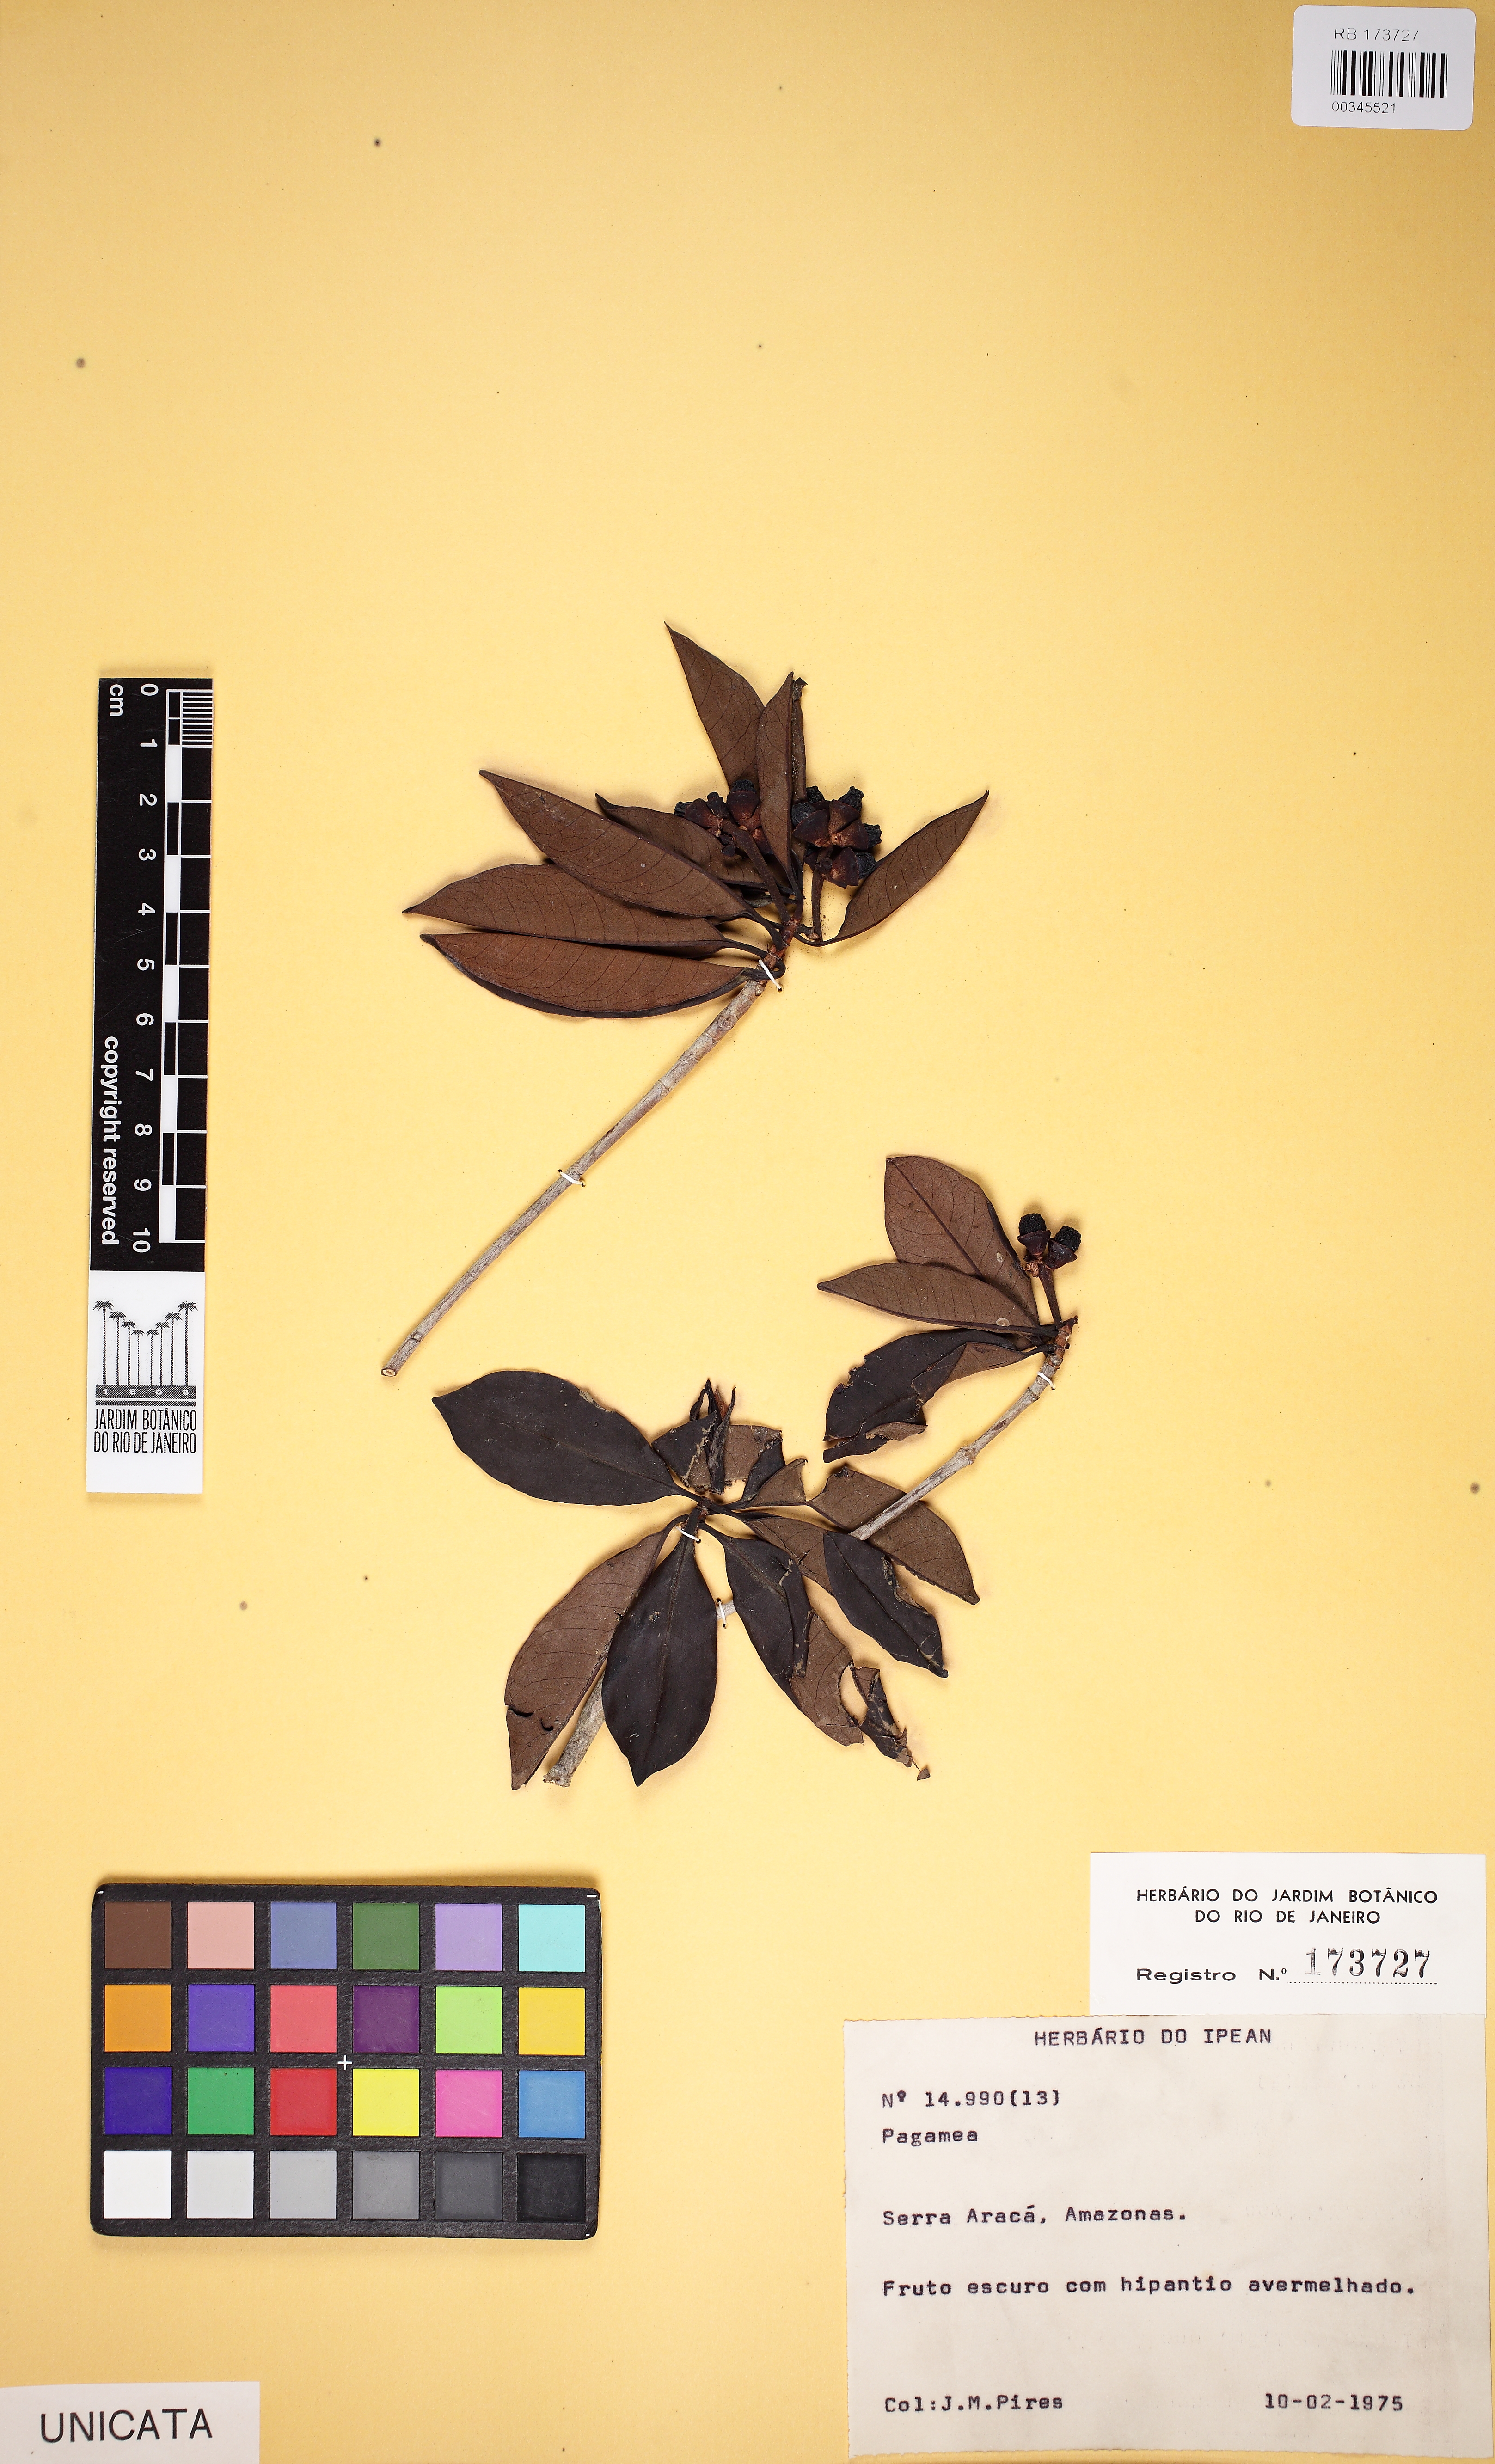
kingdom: Plantae
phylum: Tracheophyta
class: Magnoliopsida
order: Gentianales
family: Rubiaceae
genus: Pagamea
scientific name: Pagamea
